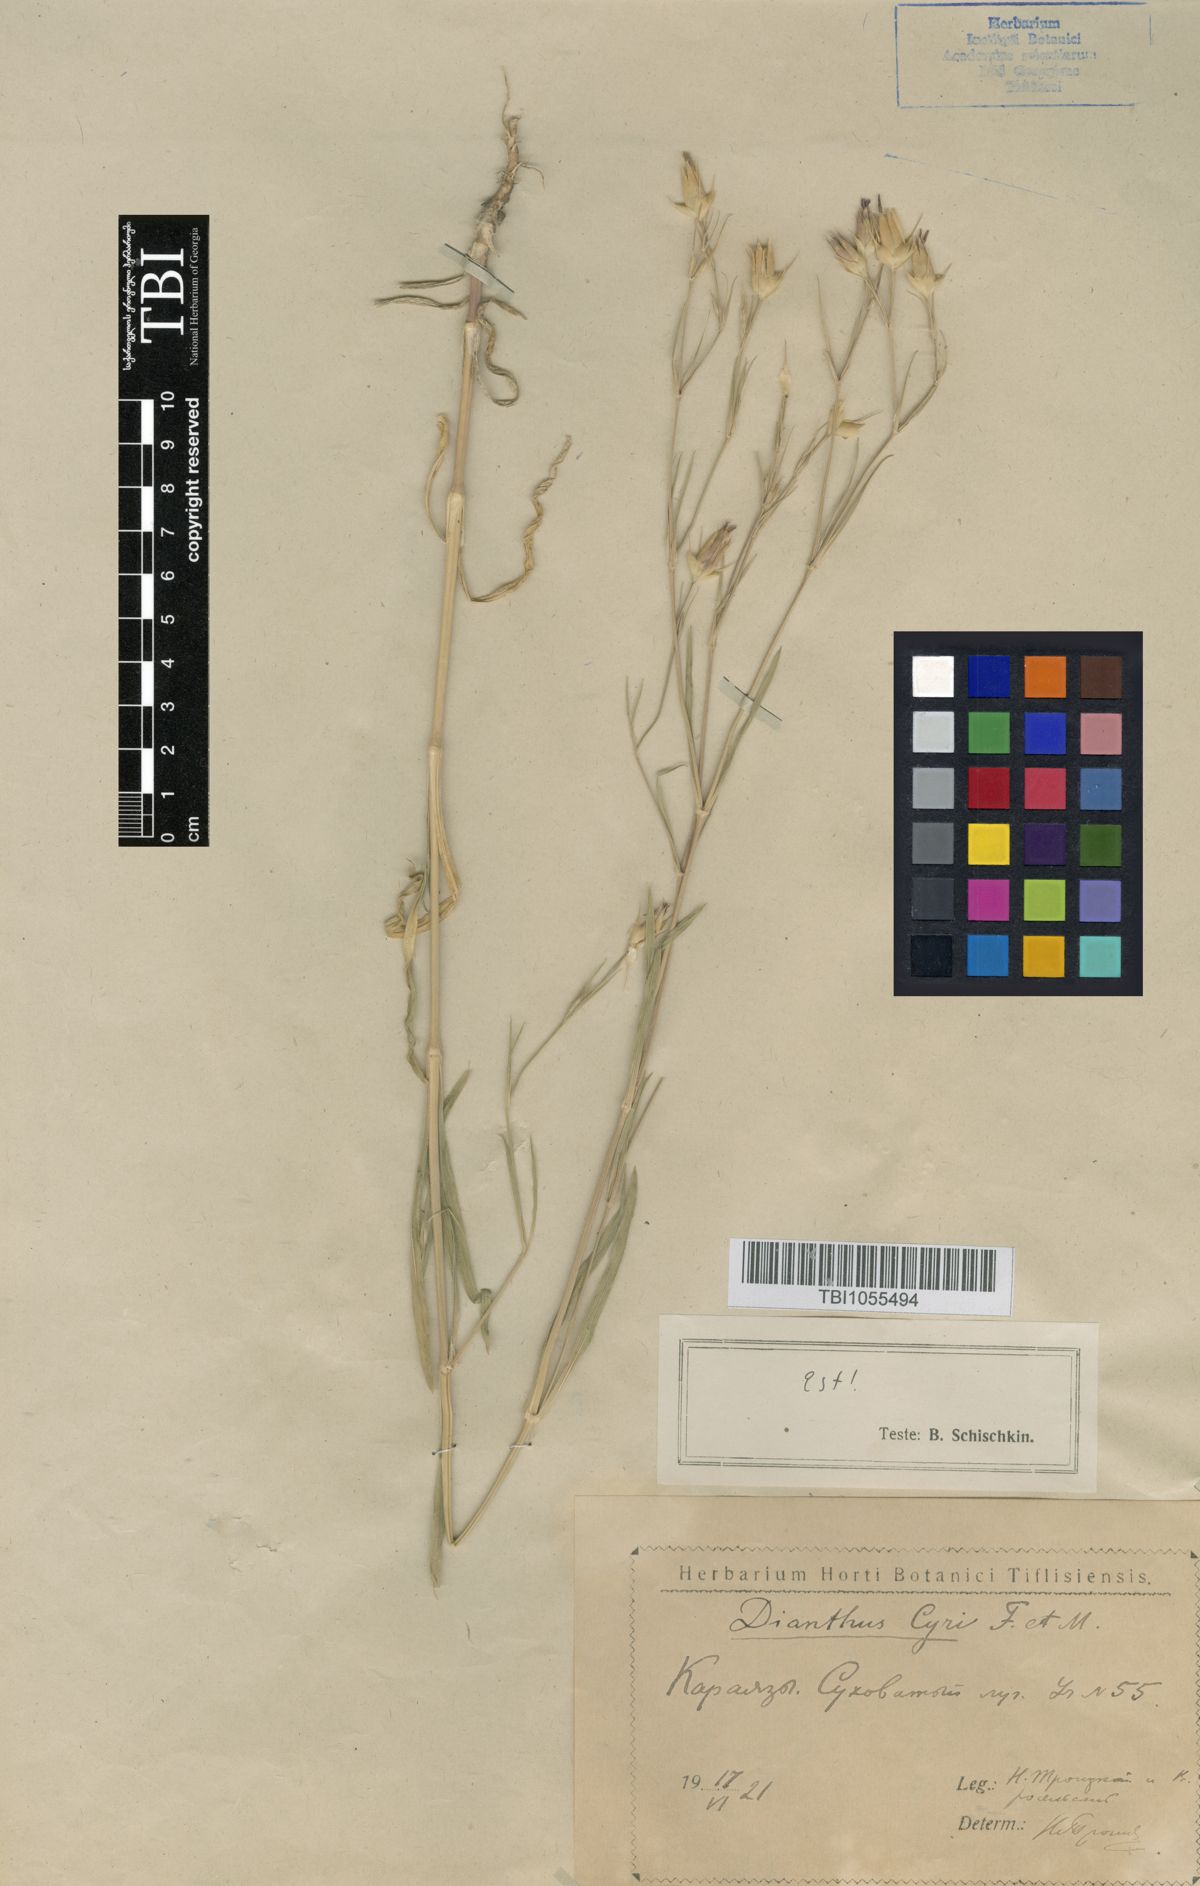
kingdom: Plantae
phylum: Tracheophyta
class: Magnoliopsida
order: Caryophyllales
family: Caryophyllaceae
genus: Dianthus
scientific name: Dianthus cyri
